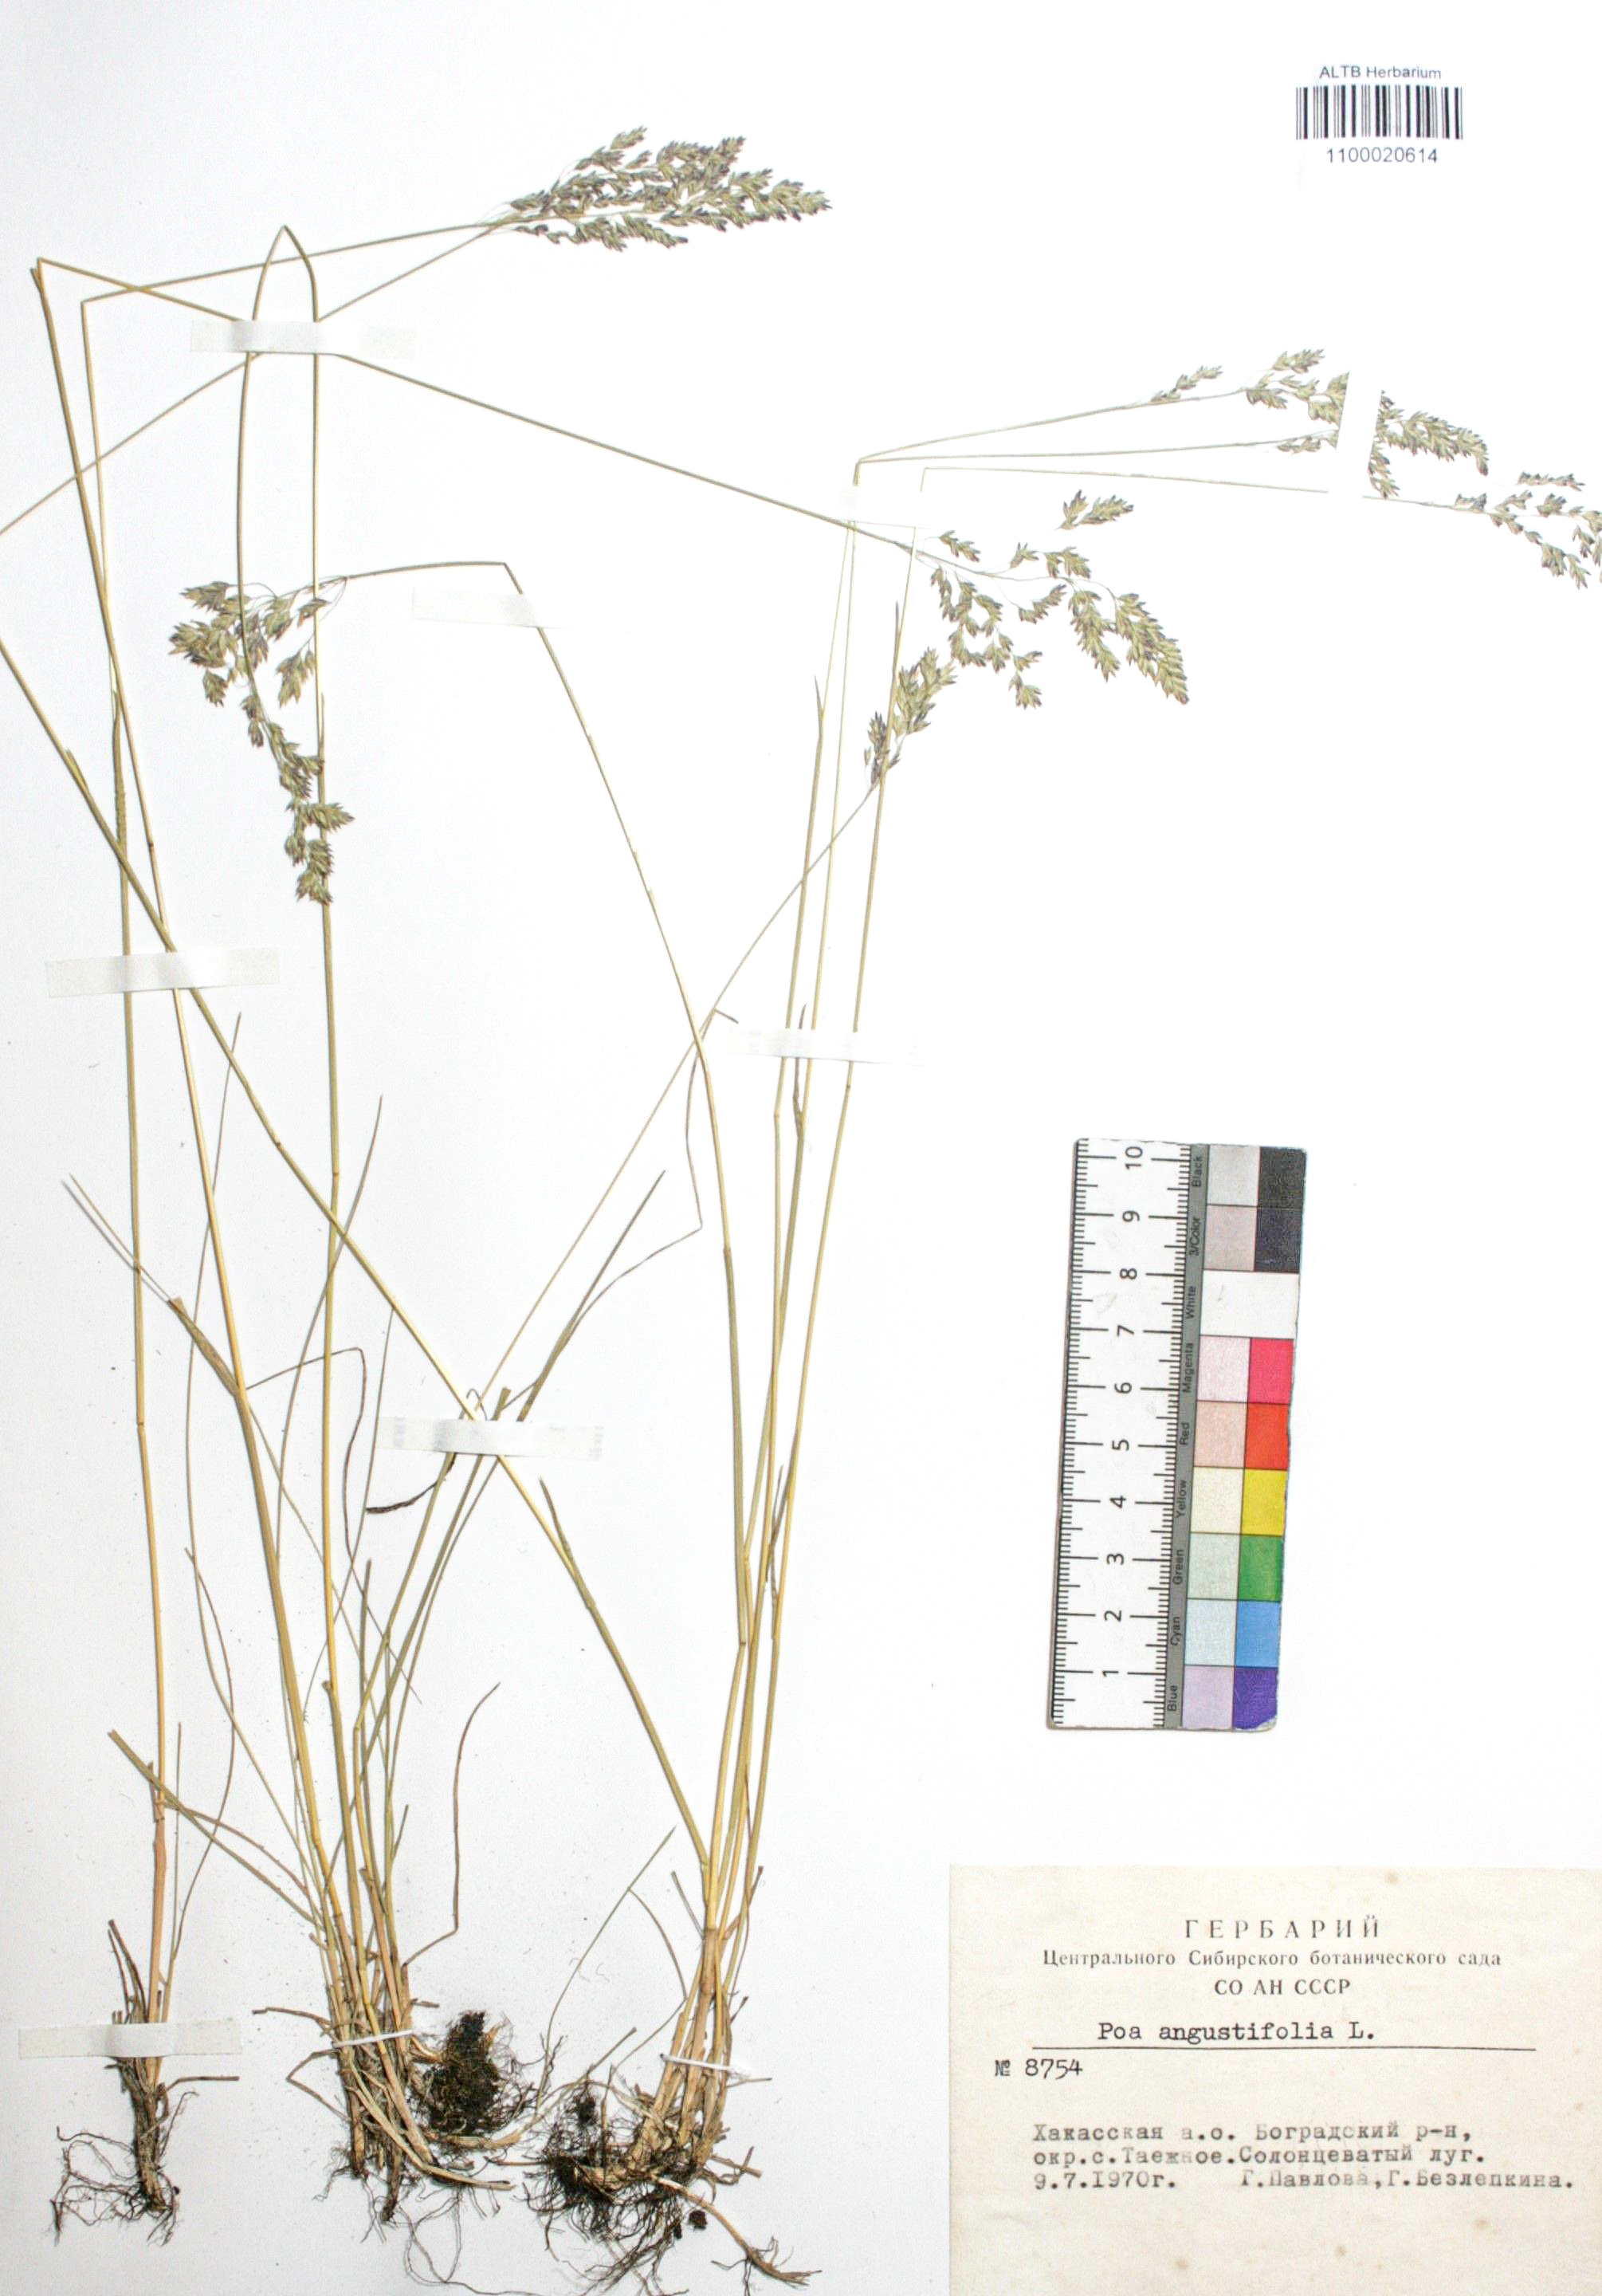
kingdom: Plantae
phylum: Tracheophyta
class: Liliopsida
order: Poales
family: Poaceae
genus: Poa
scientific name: Poa angustifolia
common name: Narrow-leaved meadow-grass
